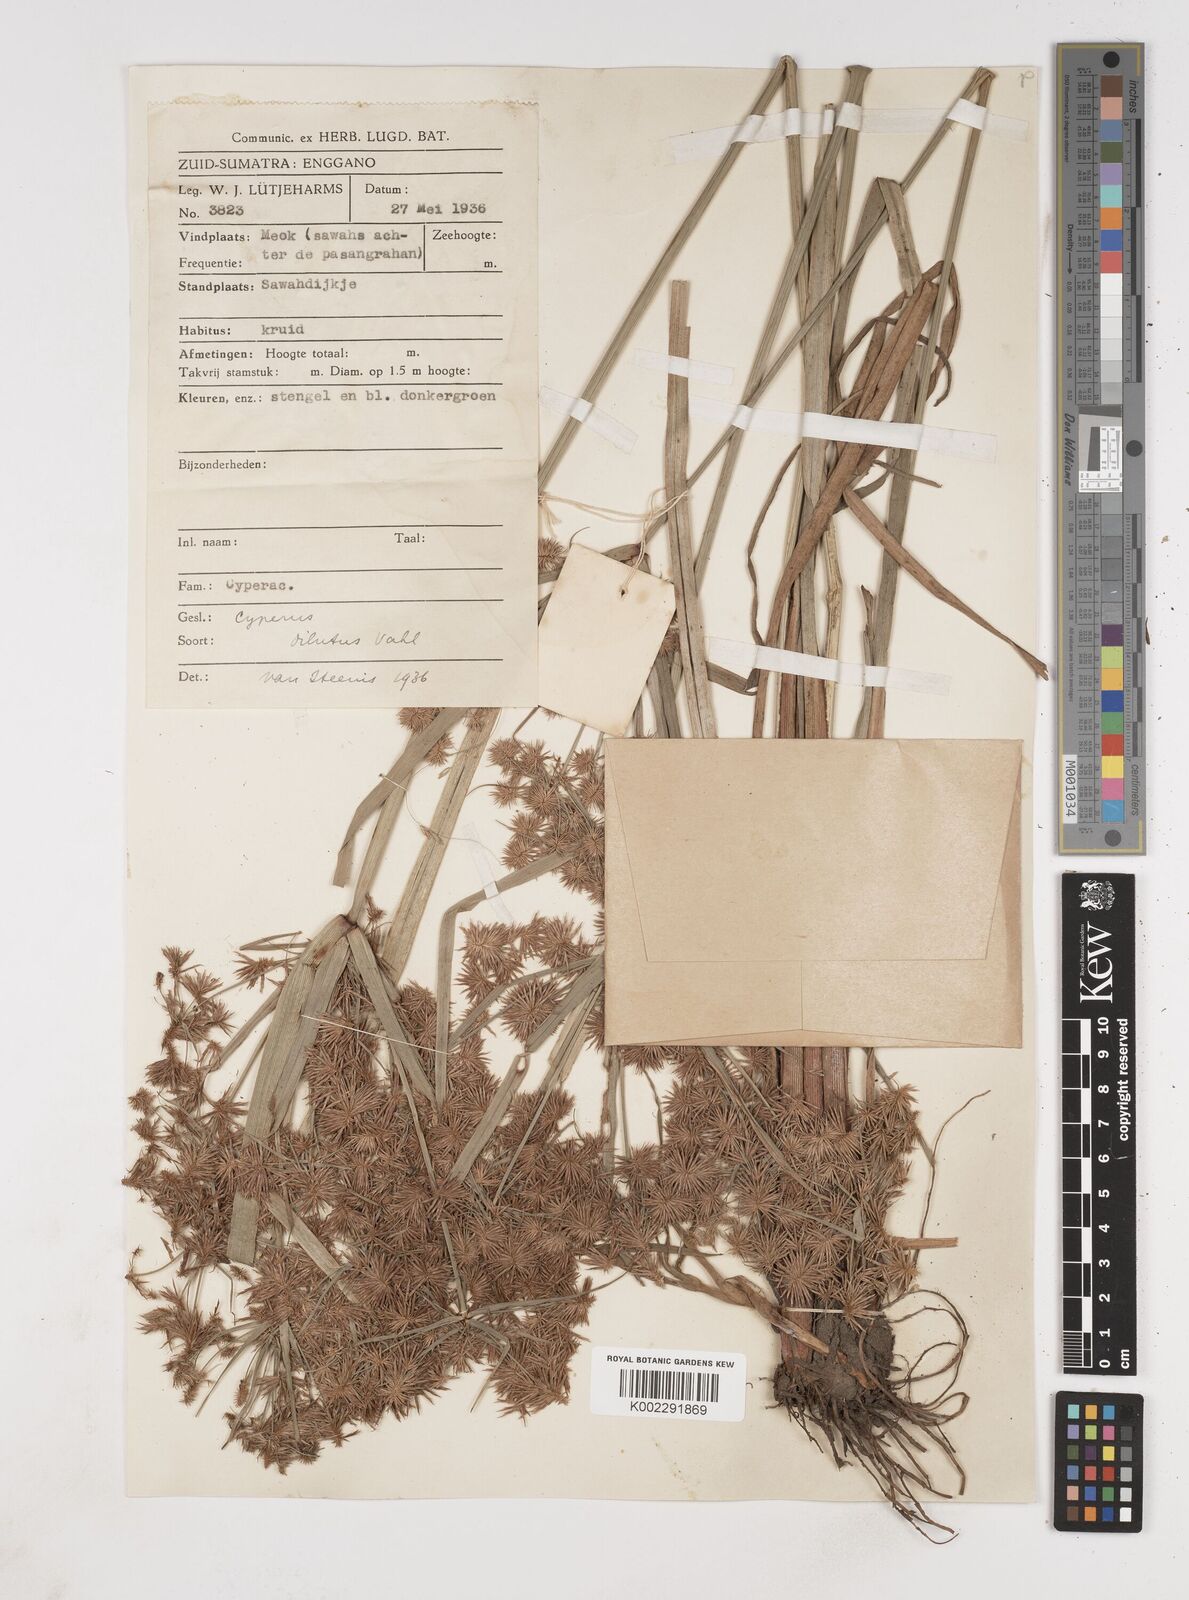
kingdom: Plantae
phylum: Tracheophyta
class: Liliopsida
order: Poales
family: Cyperaceae
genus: Cyperus
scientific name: Cyperus
